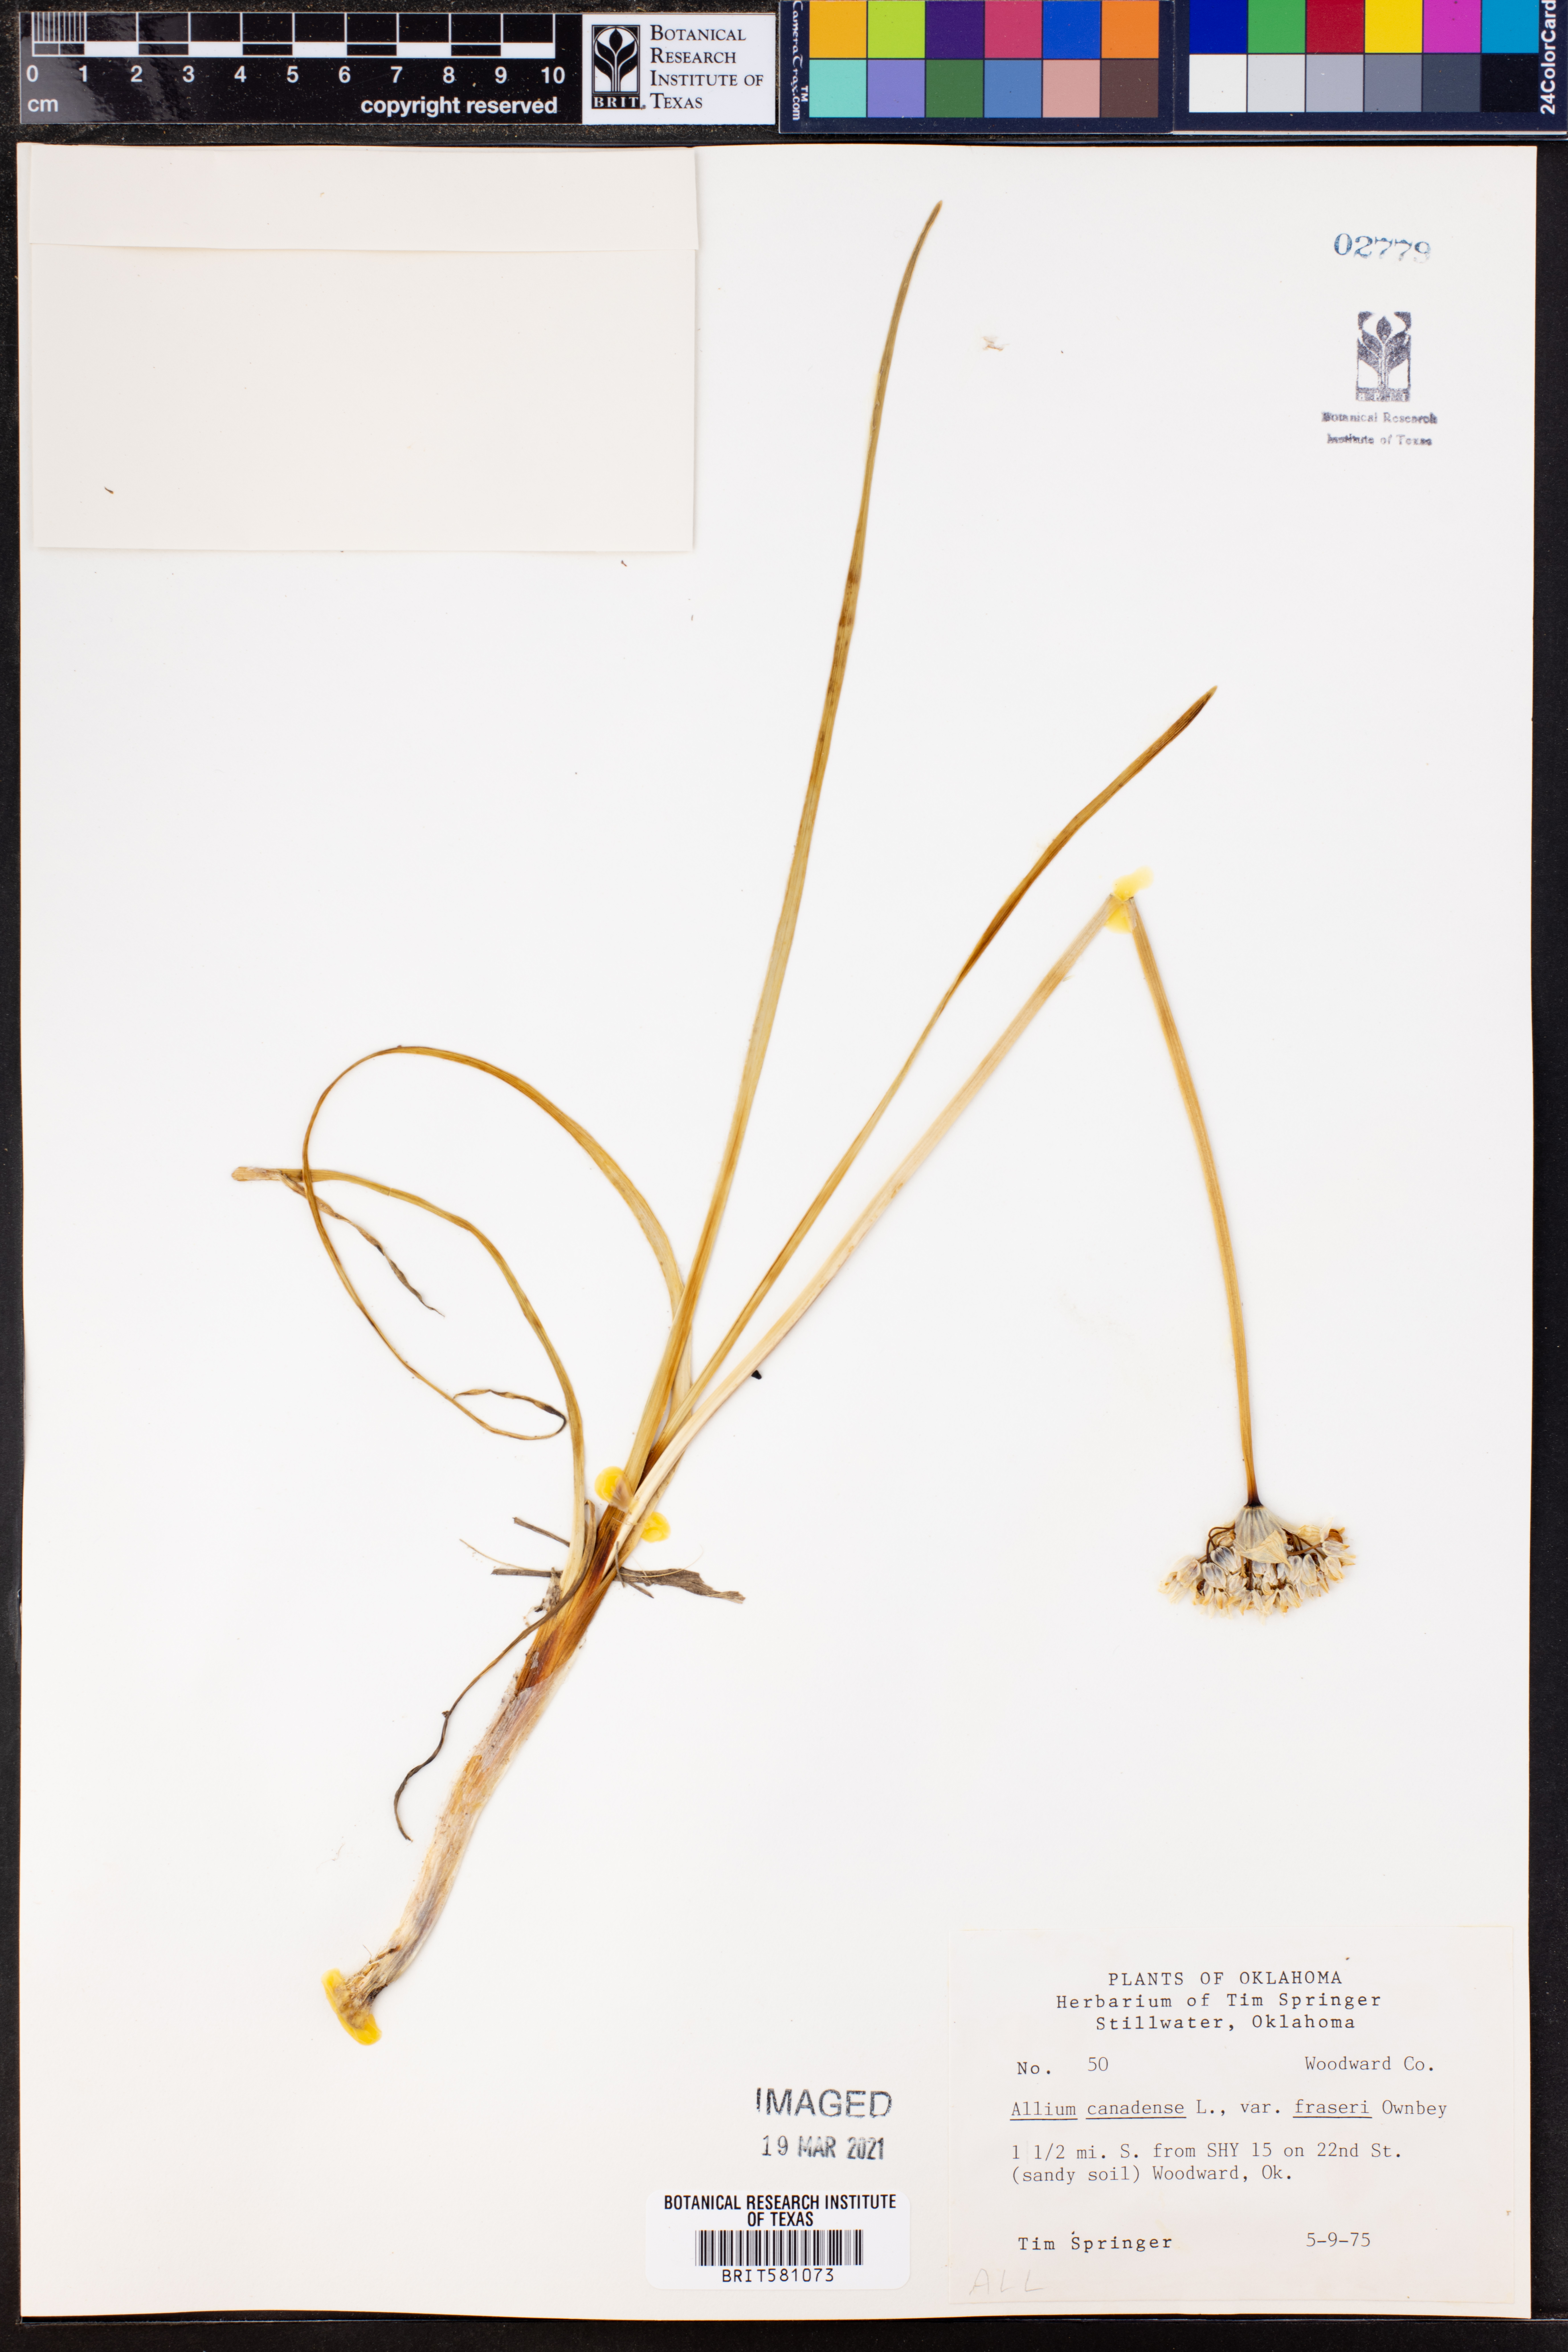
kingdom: Plantae
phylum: Tracheophyta
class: Liliopsida
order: Asparagales
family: Amaryllidaceae
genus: Allium
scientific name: Allium fraseri
